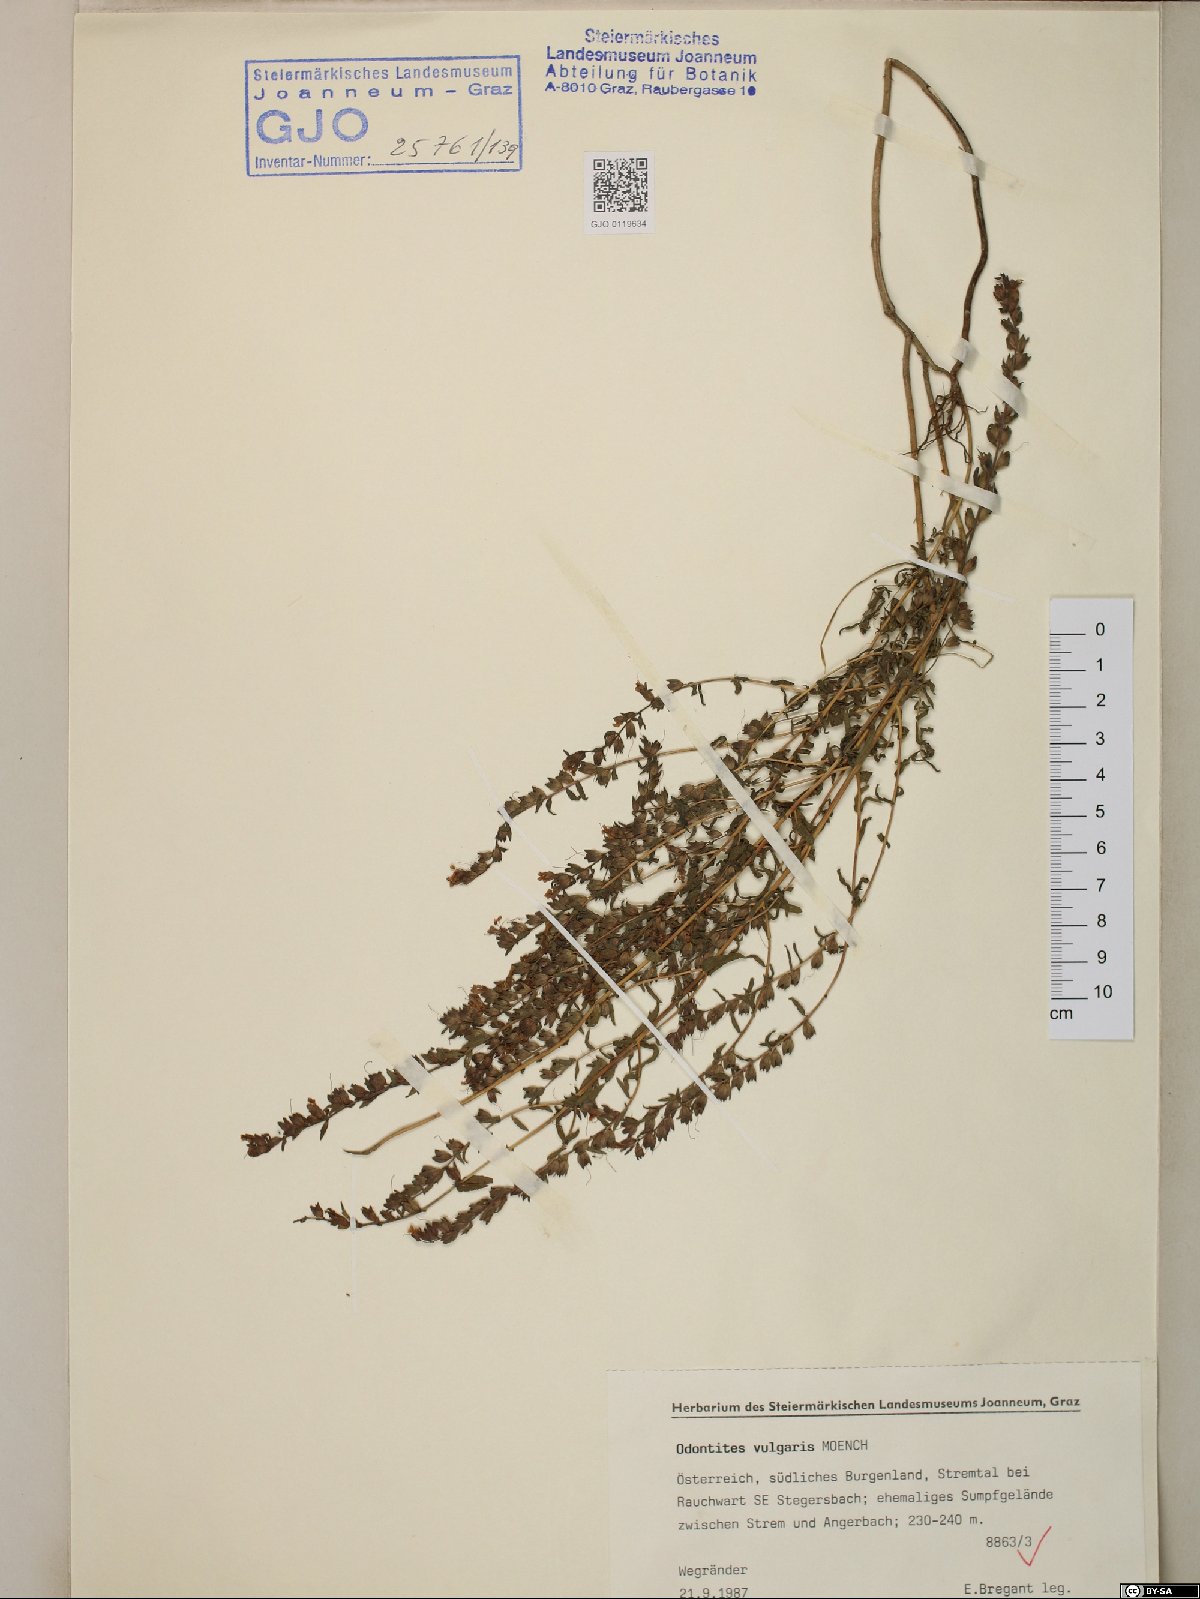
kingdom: Plantae
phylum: Tracheophyta
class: Magnoliopsida
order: Lamiales
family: Orobanchaceae
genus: Odontites
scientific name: Odontites vulgaris
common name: Broomrape
